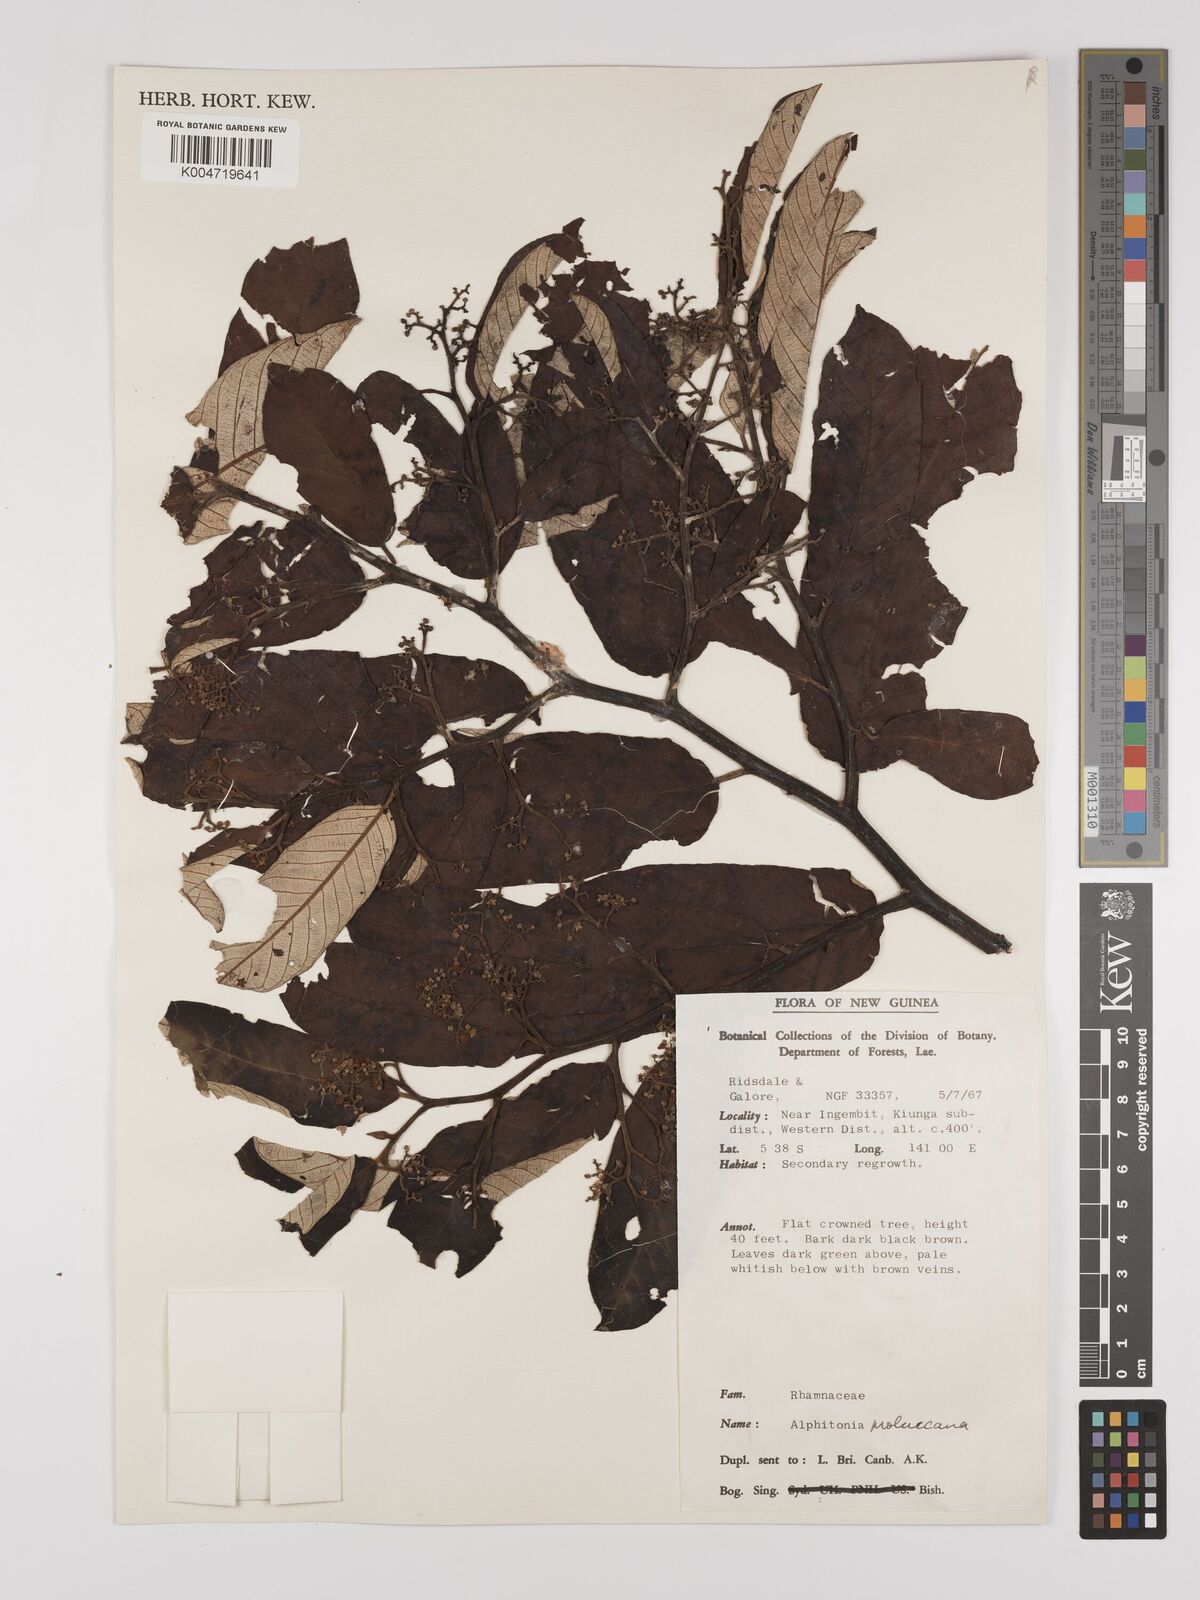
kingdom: Plantae
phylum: Tracheophyta
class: Magnoliopsida
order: Rosales
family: Rhamnaceae
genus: Alphitonia
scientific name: Alphitonia incana
